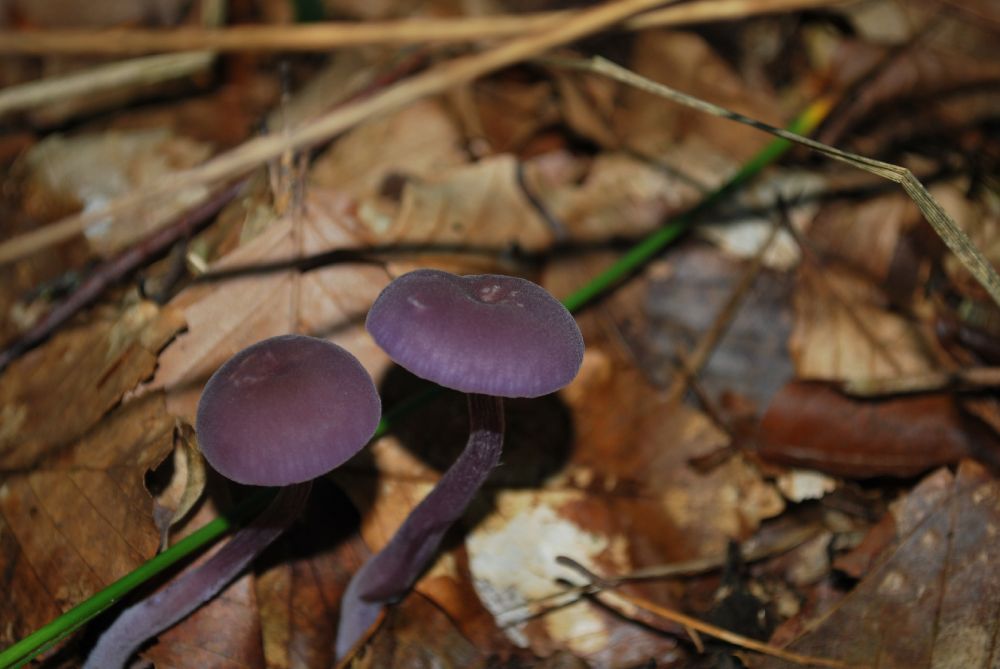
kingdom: Fungi
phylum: Basidiomycota
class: Agaricomycetes
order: Agaricales
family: Hydnangiaceae
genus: Laccaria
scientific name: Laccaria amethystina
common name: violet ametysthat
